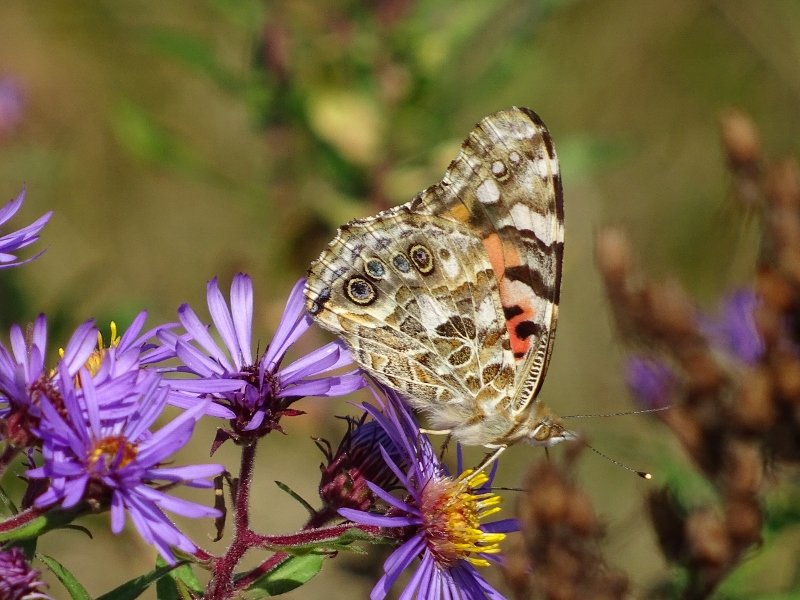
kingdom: Animalia
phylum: Arthropoda
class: Insecta
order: Lepidoptera
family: Nymphalidae
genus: Vanessa
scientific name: Vanessa cardui
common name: Painted Lady
